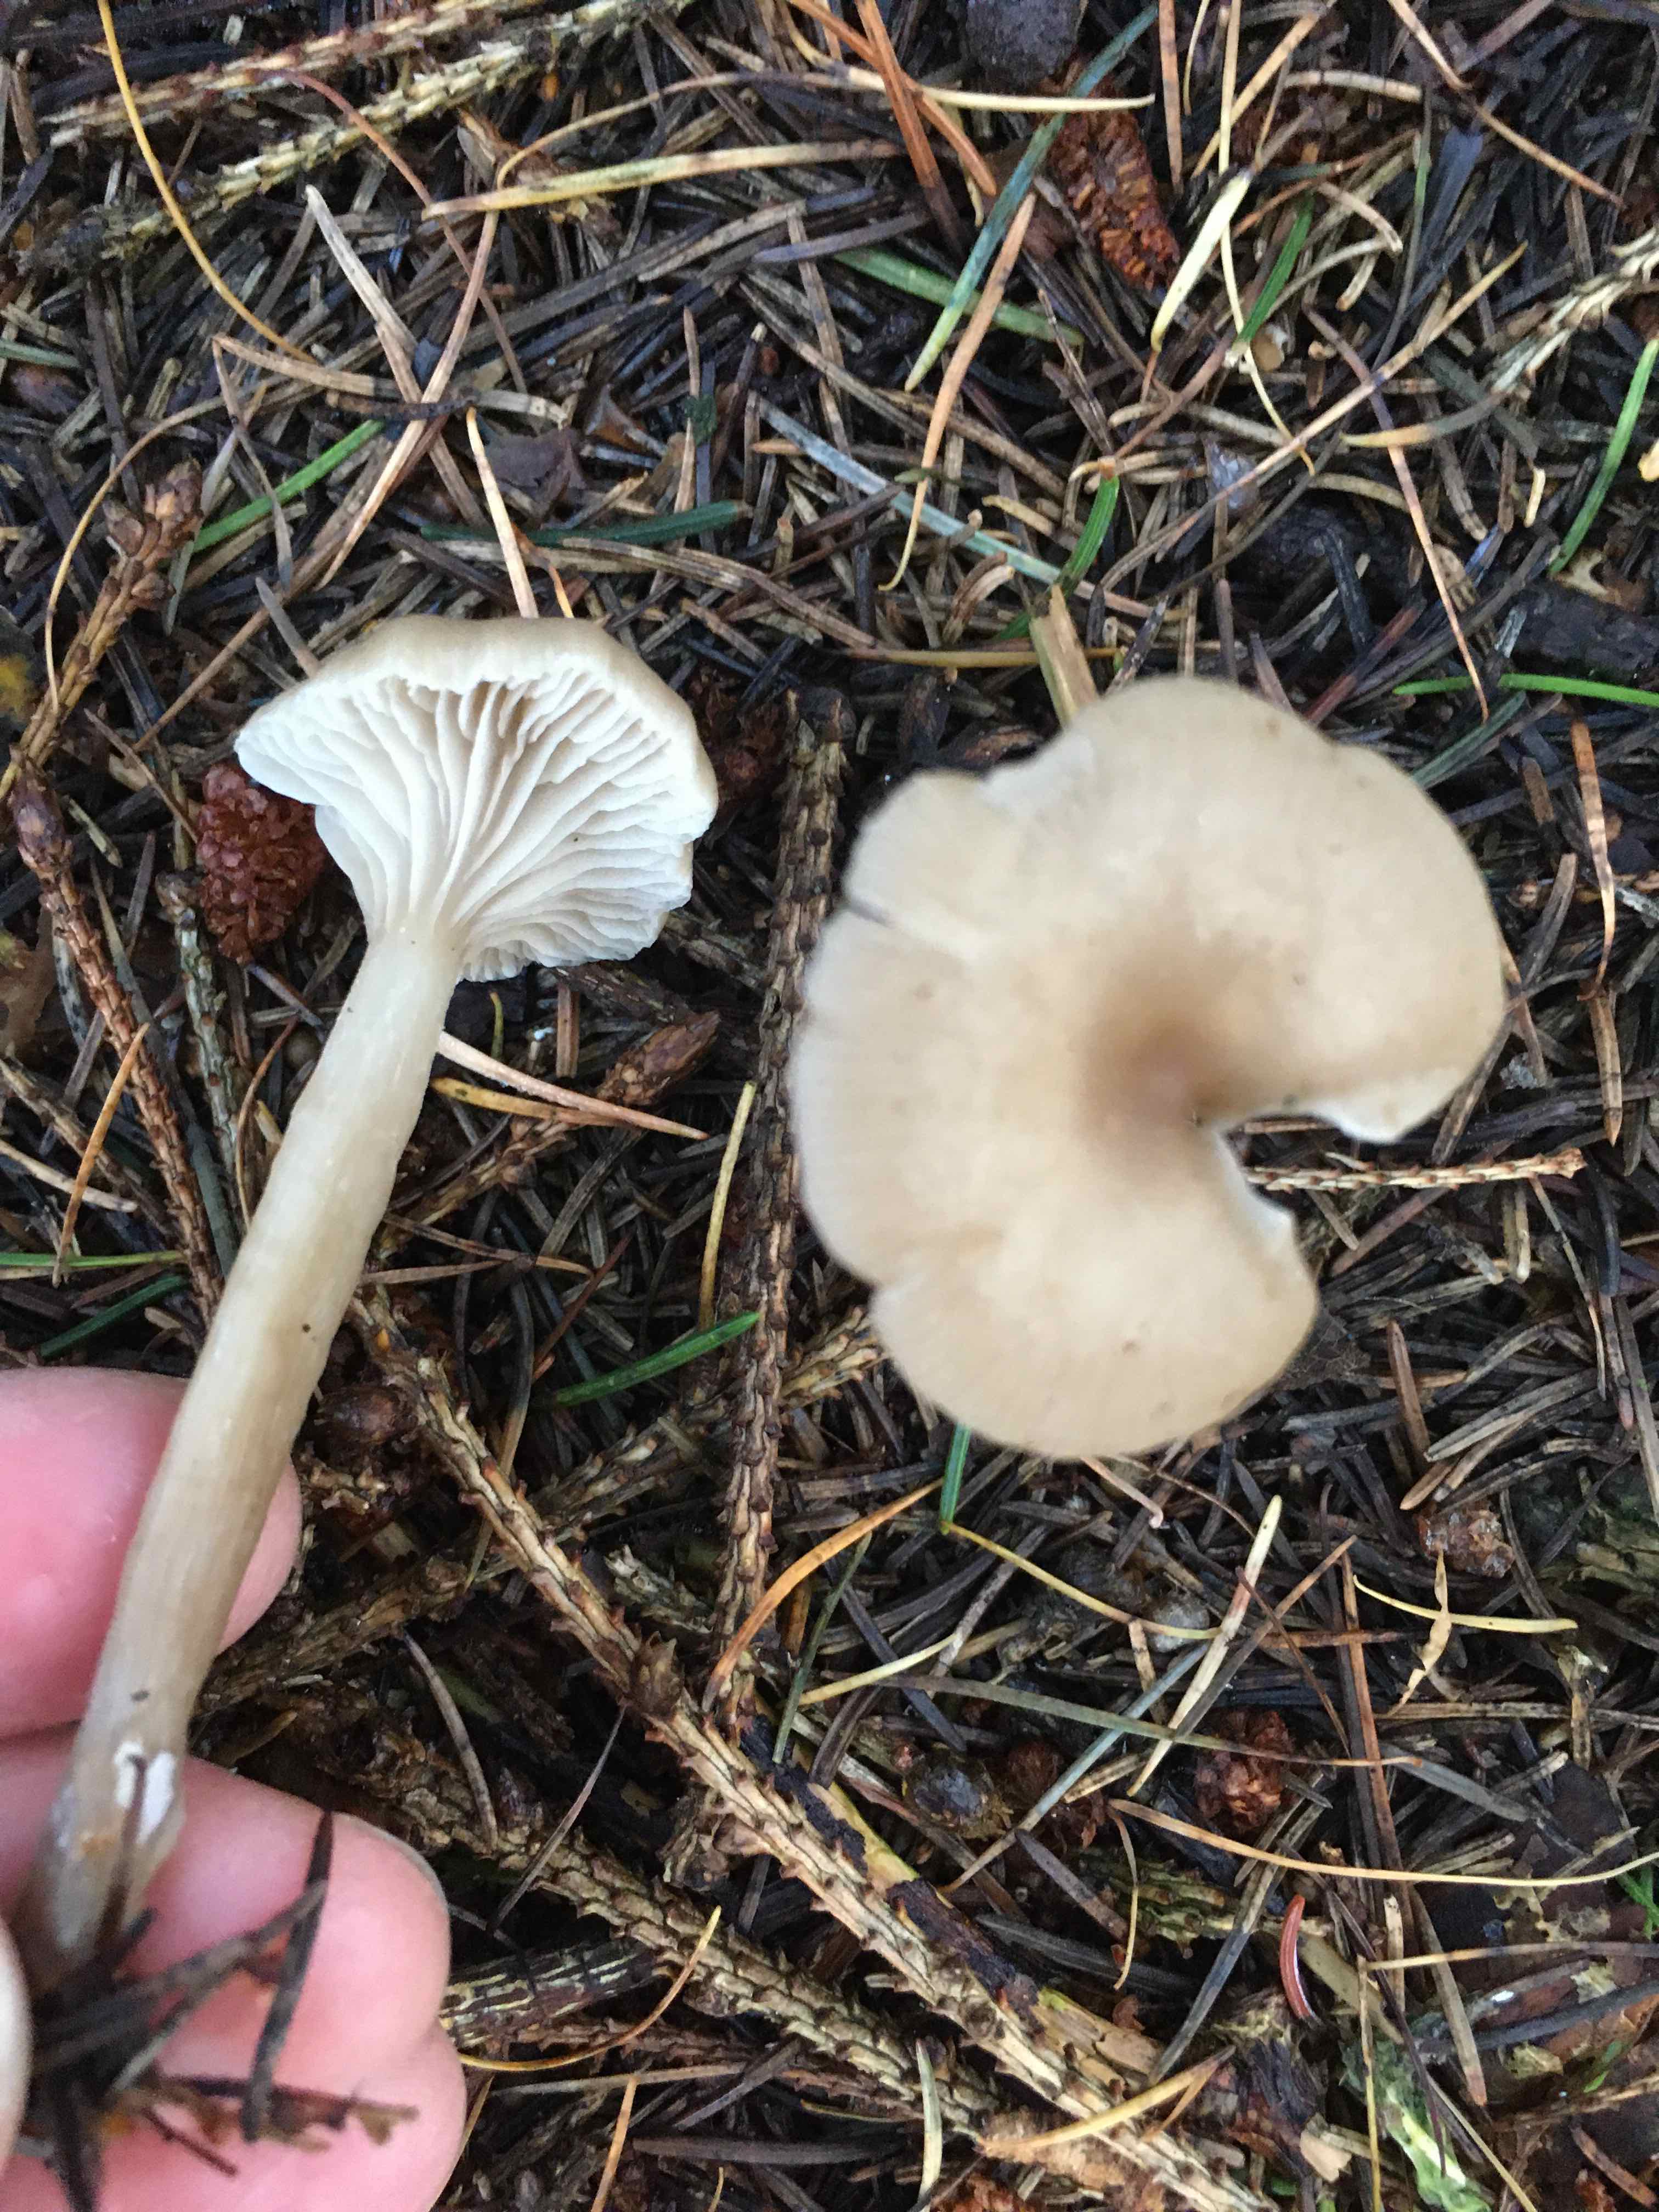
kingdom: Fungi
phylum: Basidiomycota
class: Agaricomycetes
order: Agaricales
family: Tricholomataceae
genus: Clitocybe
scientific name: Clitocybe
